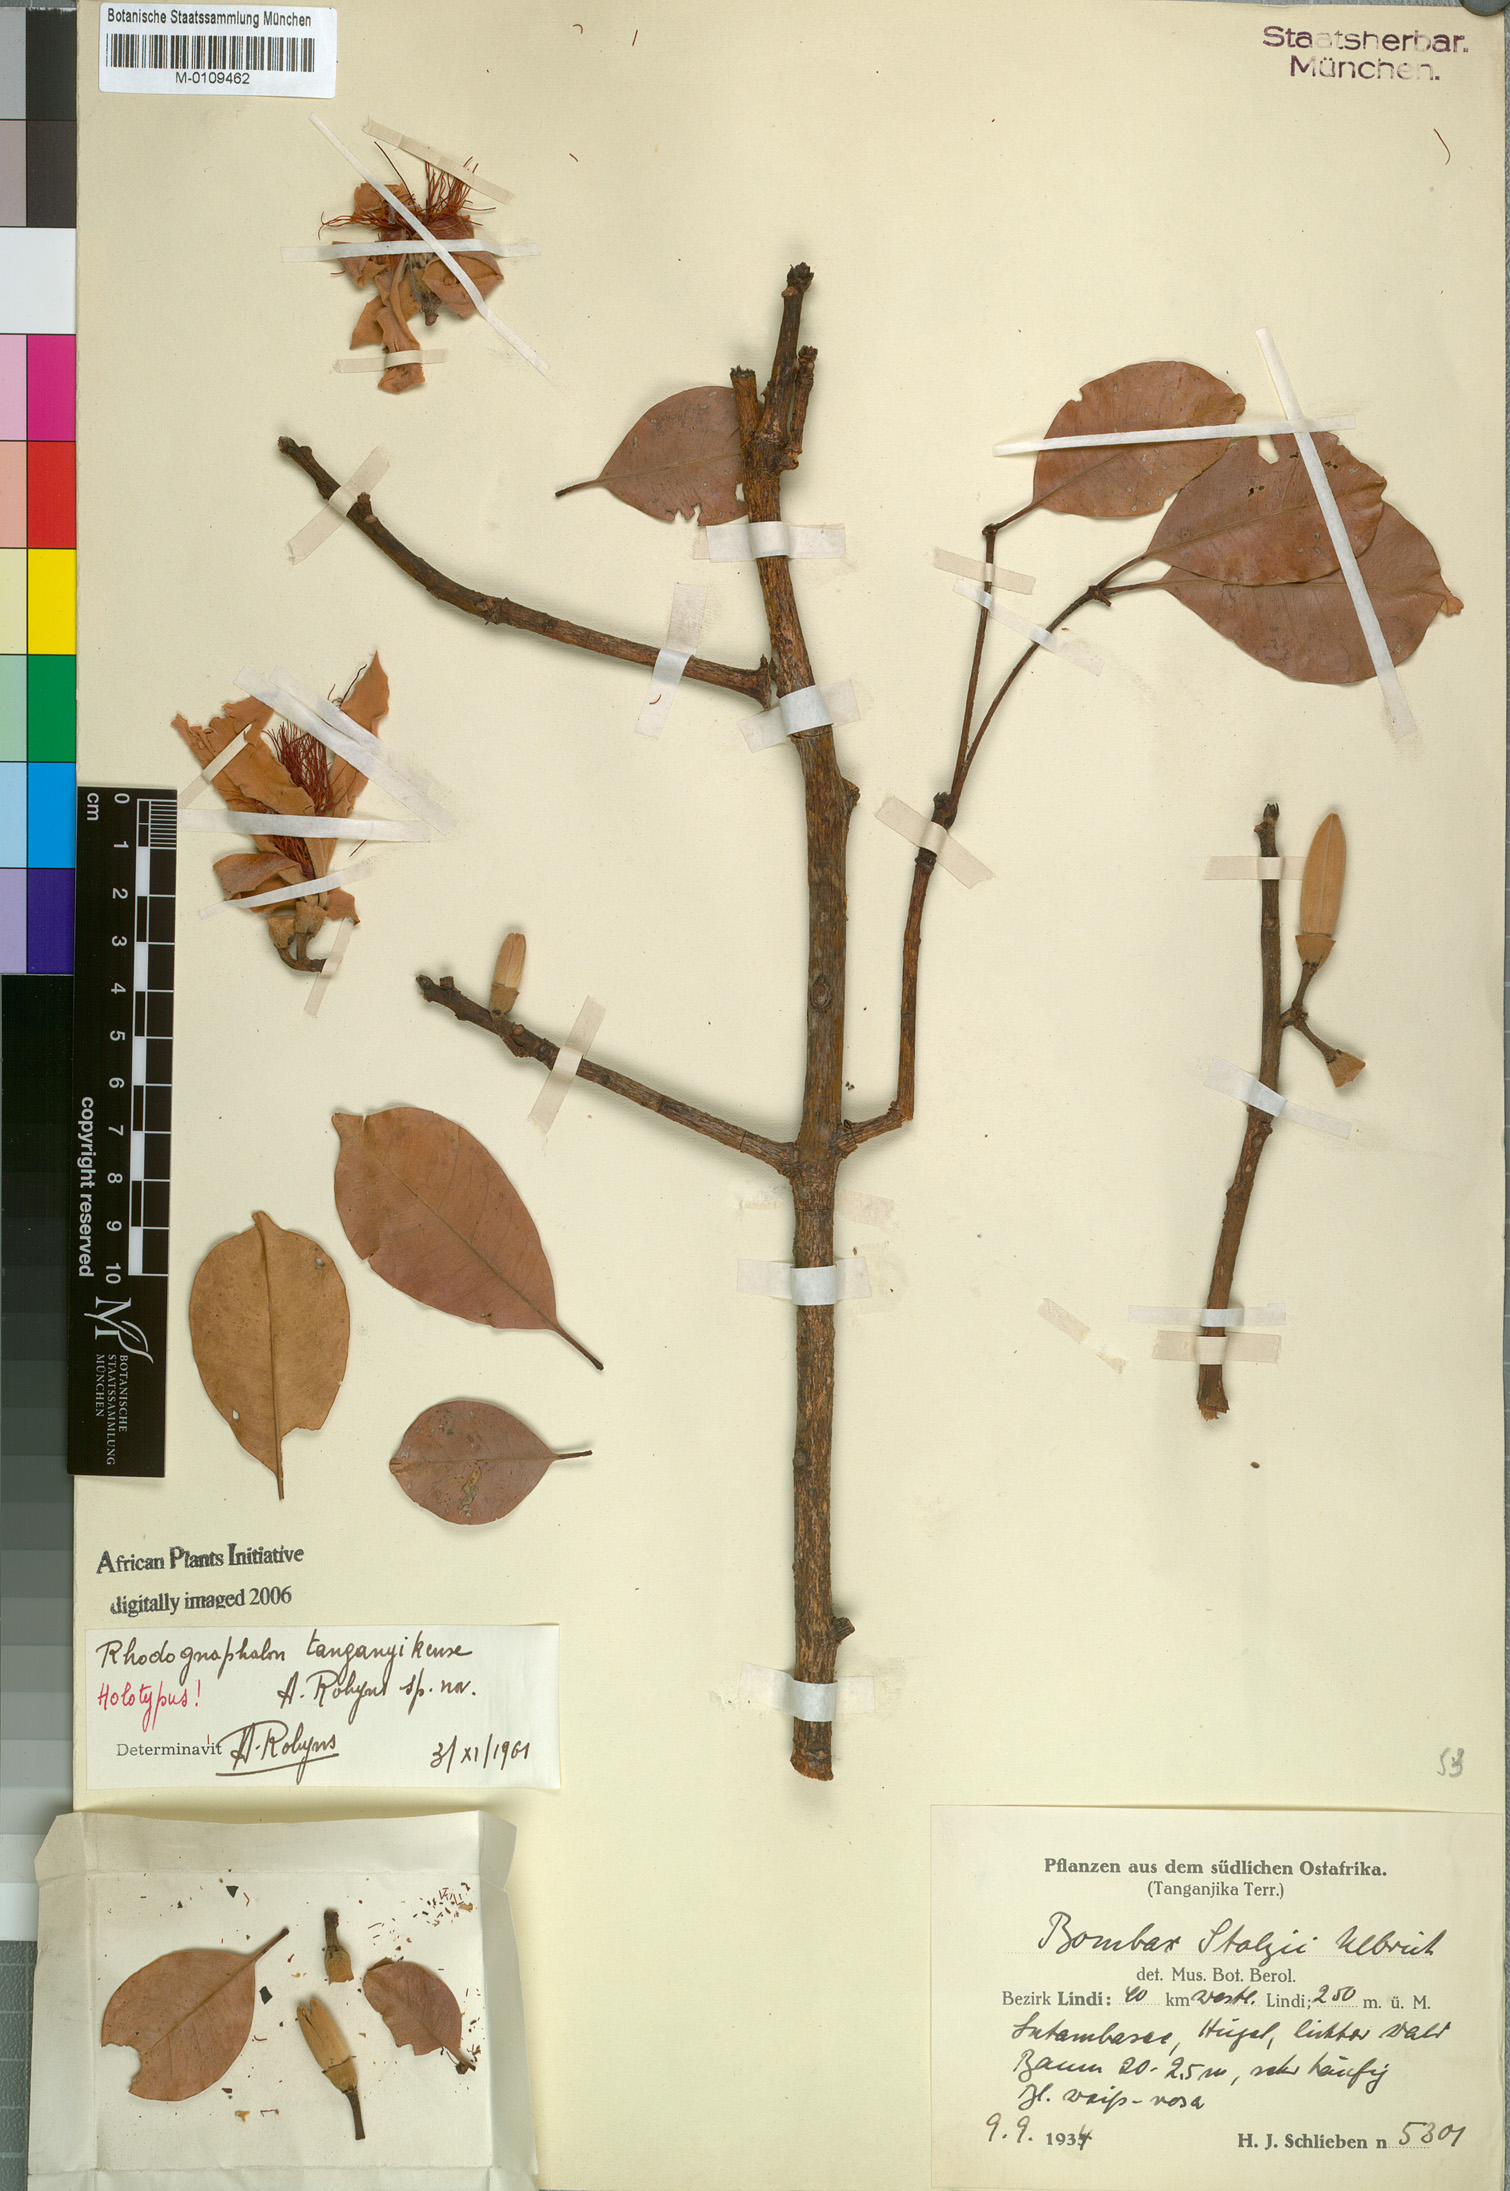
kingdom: Plantae
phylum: Tracheophyta
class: Magnoliopsida
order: Malvales
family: Malvaceae
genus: Rhodognaphalon
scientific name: Rhodognaphalon stolzii
